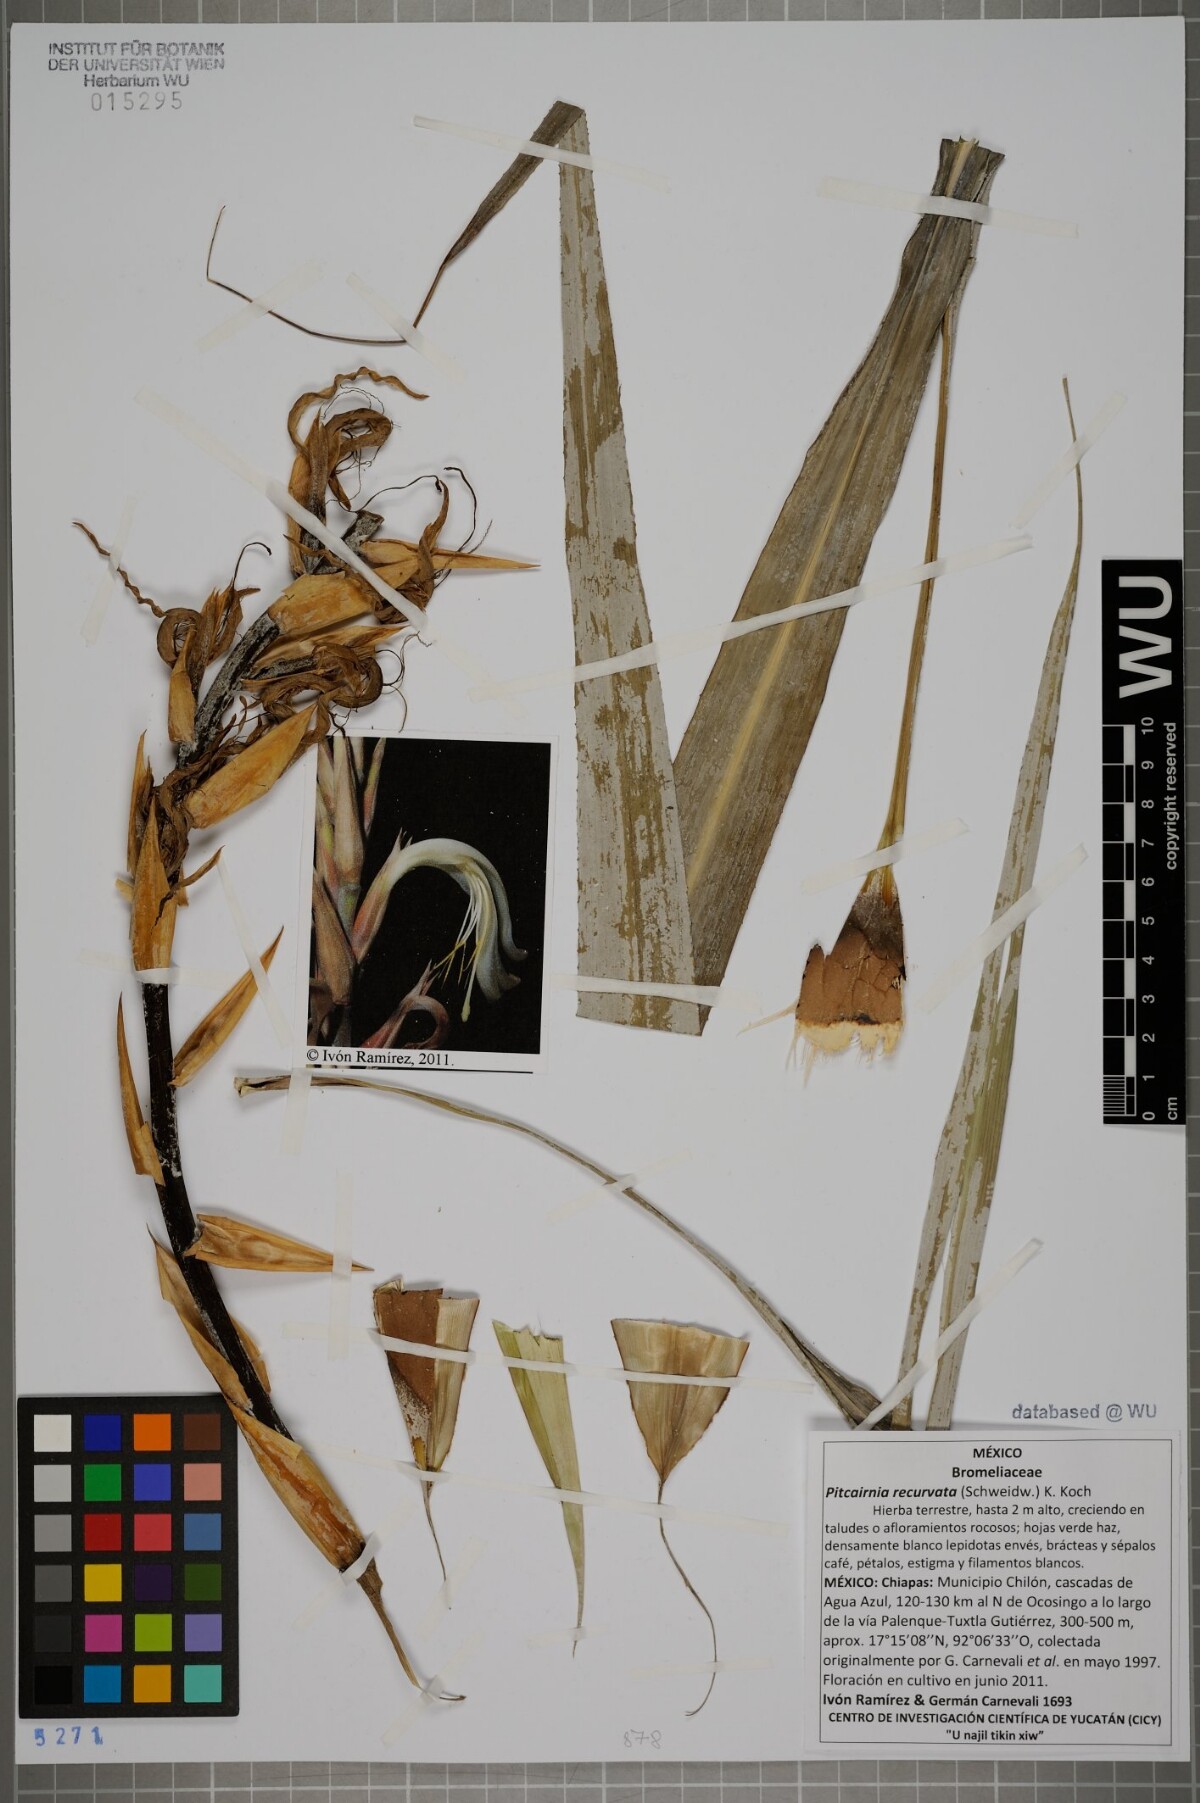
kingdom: Plantae
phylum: Tracheophyta
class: Liliopsida
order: Poales
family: Bromeliaceae
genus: Pitcairnia
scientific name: Pitcairnia recurvata
